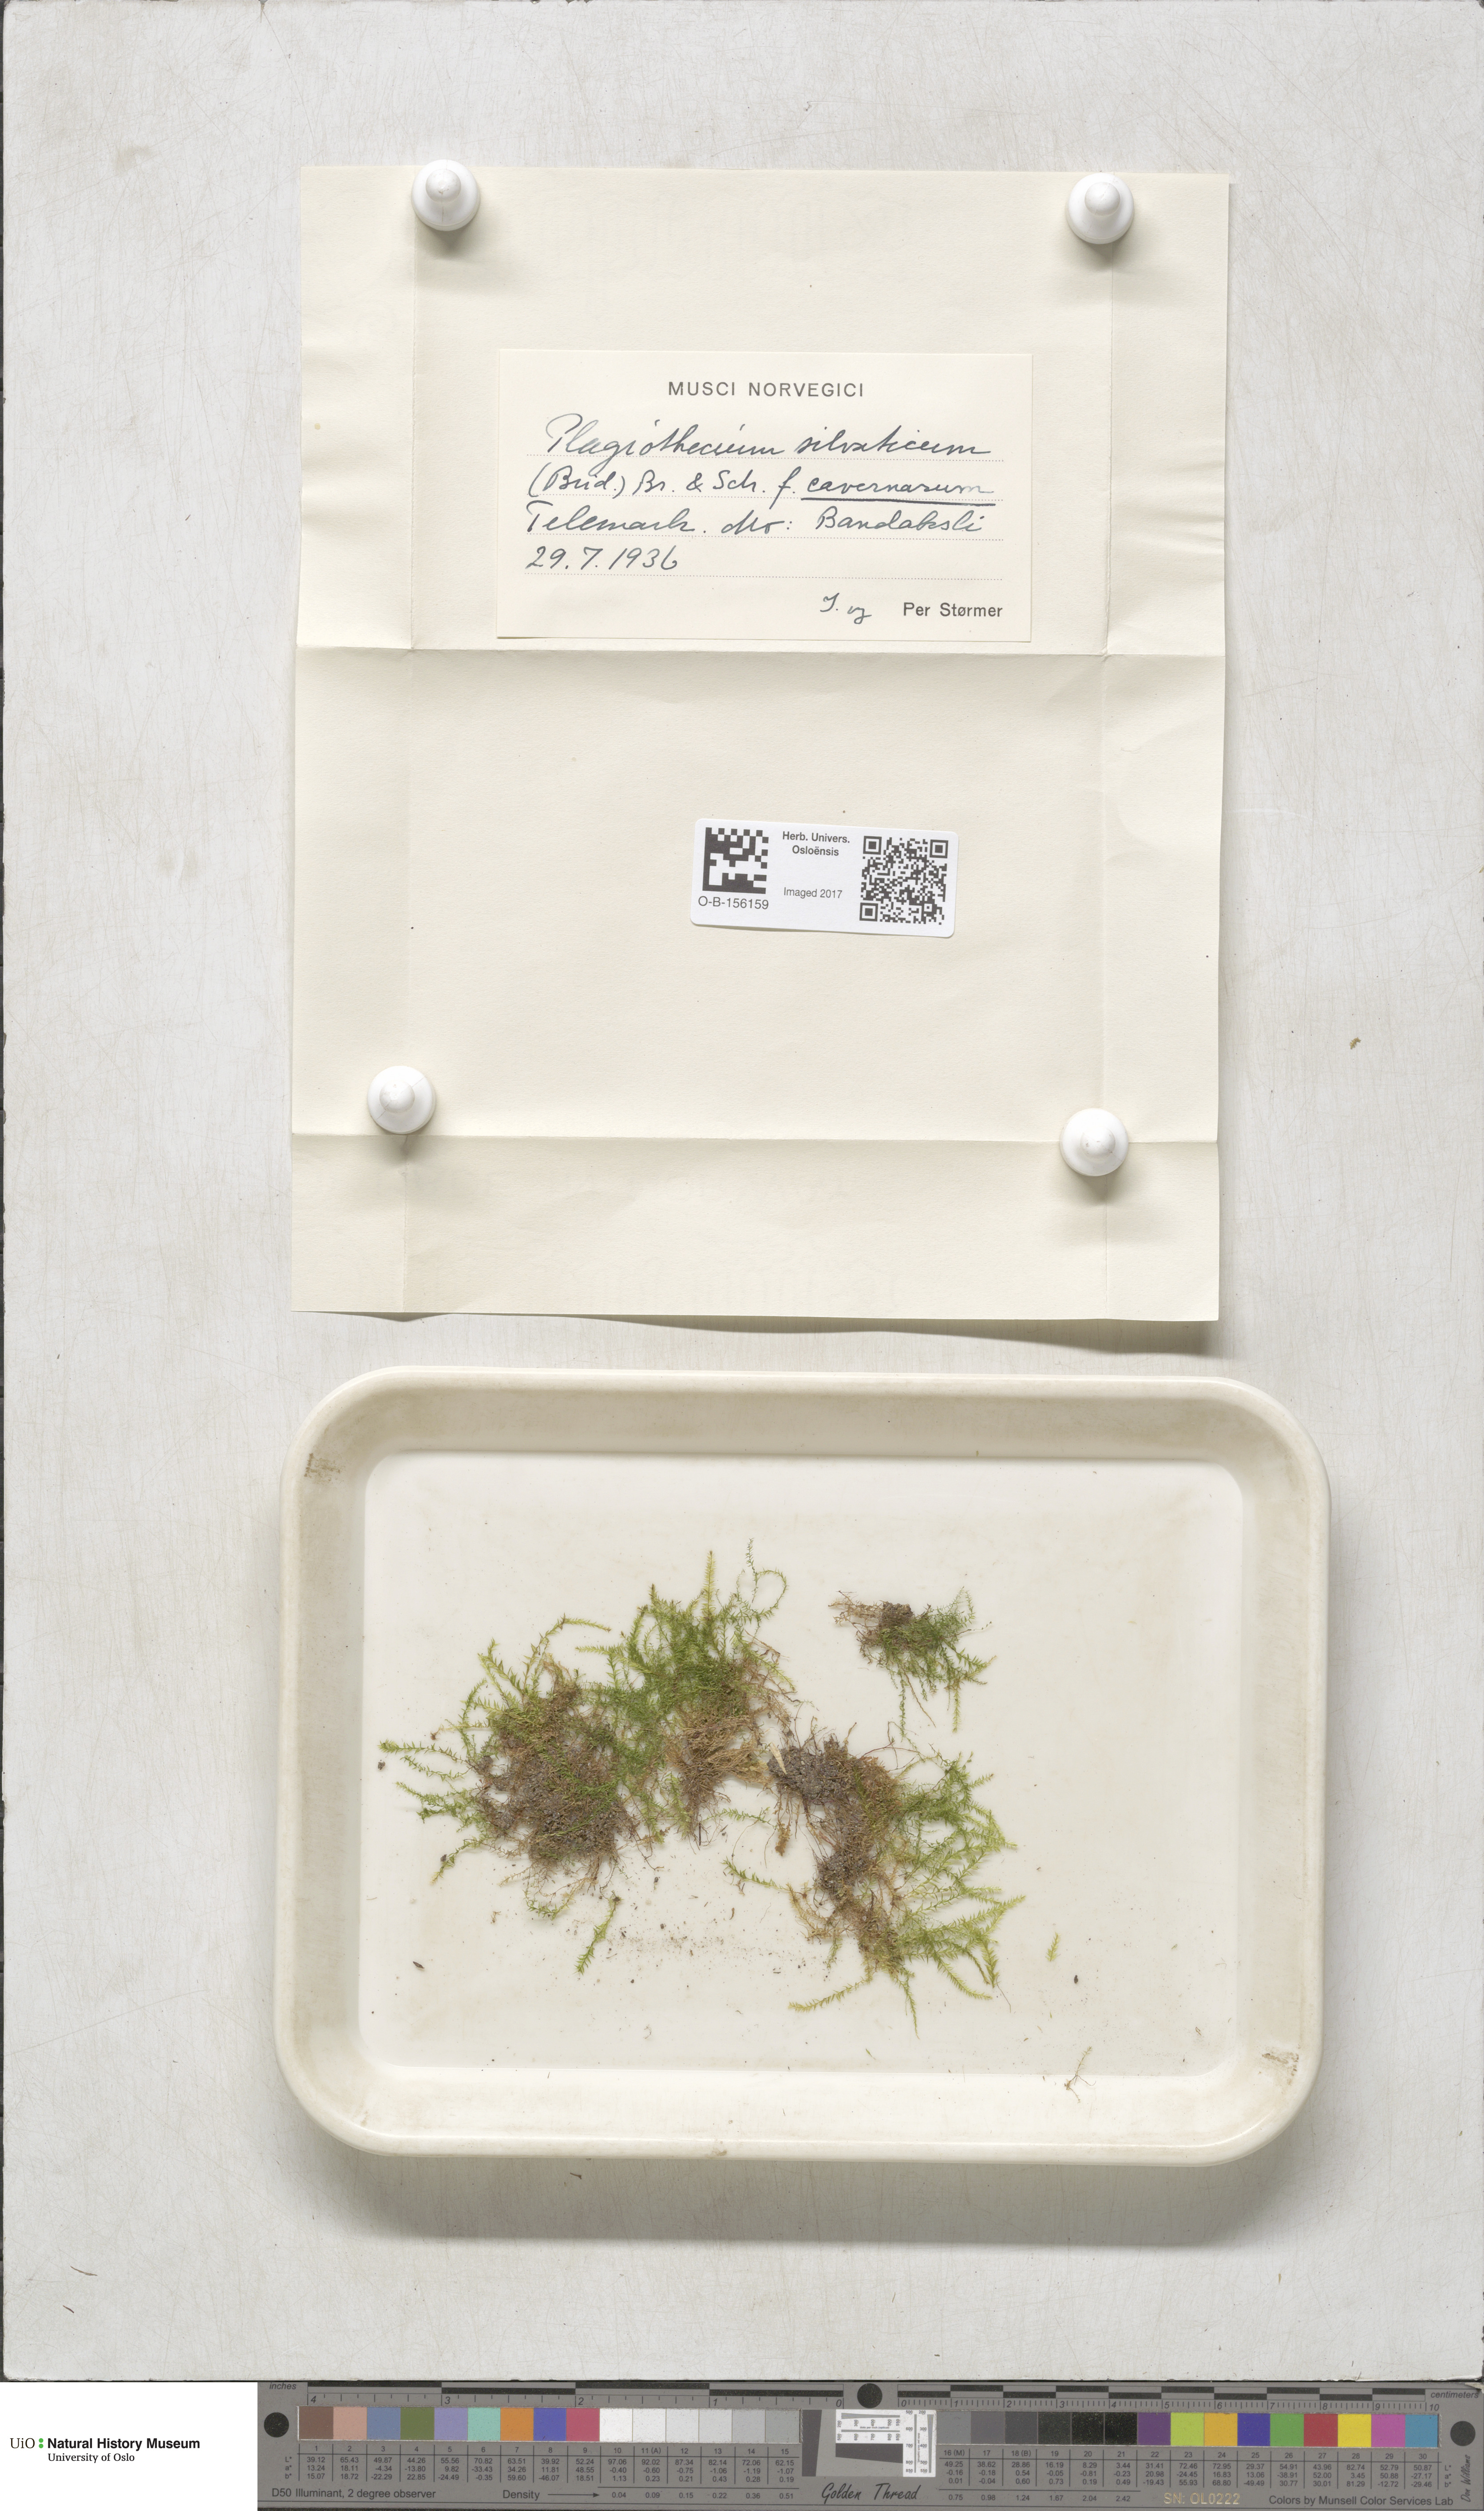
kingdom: Plantae
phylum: Bryophyta
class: Bryopsida
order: Hypnales
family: Plagiotheciaceae
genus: Plagiothecium
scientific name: Plagiothecium nemorale
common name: Woodsy silk-moss
